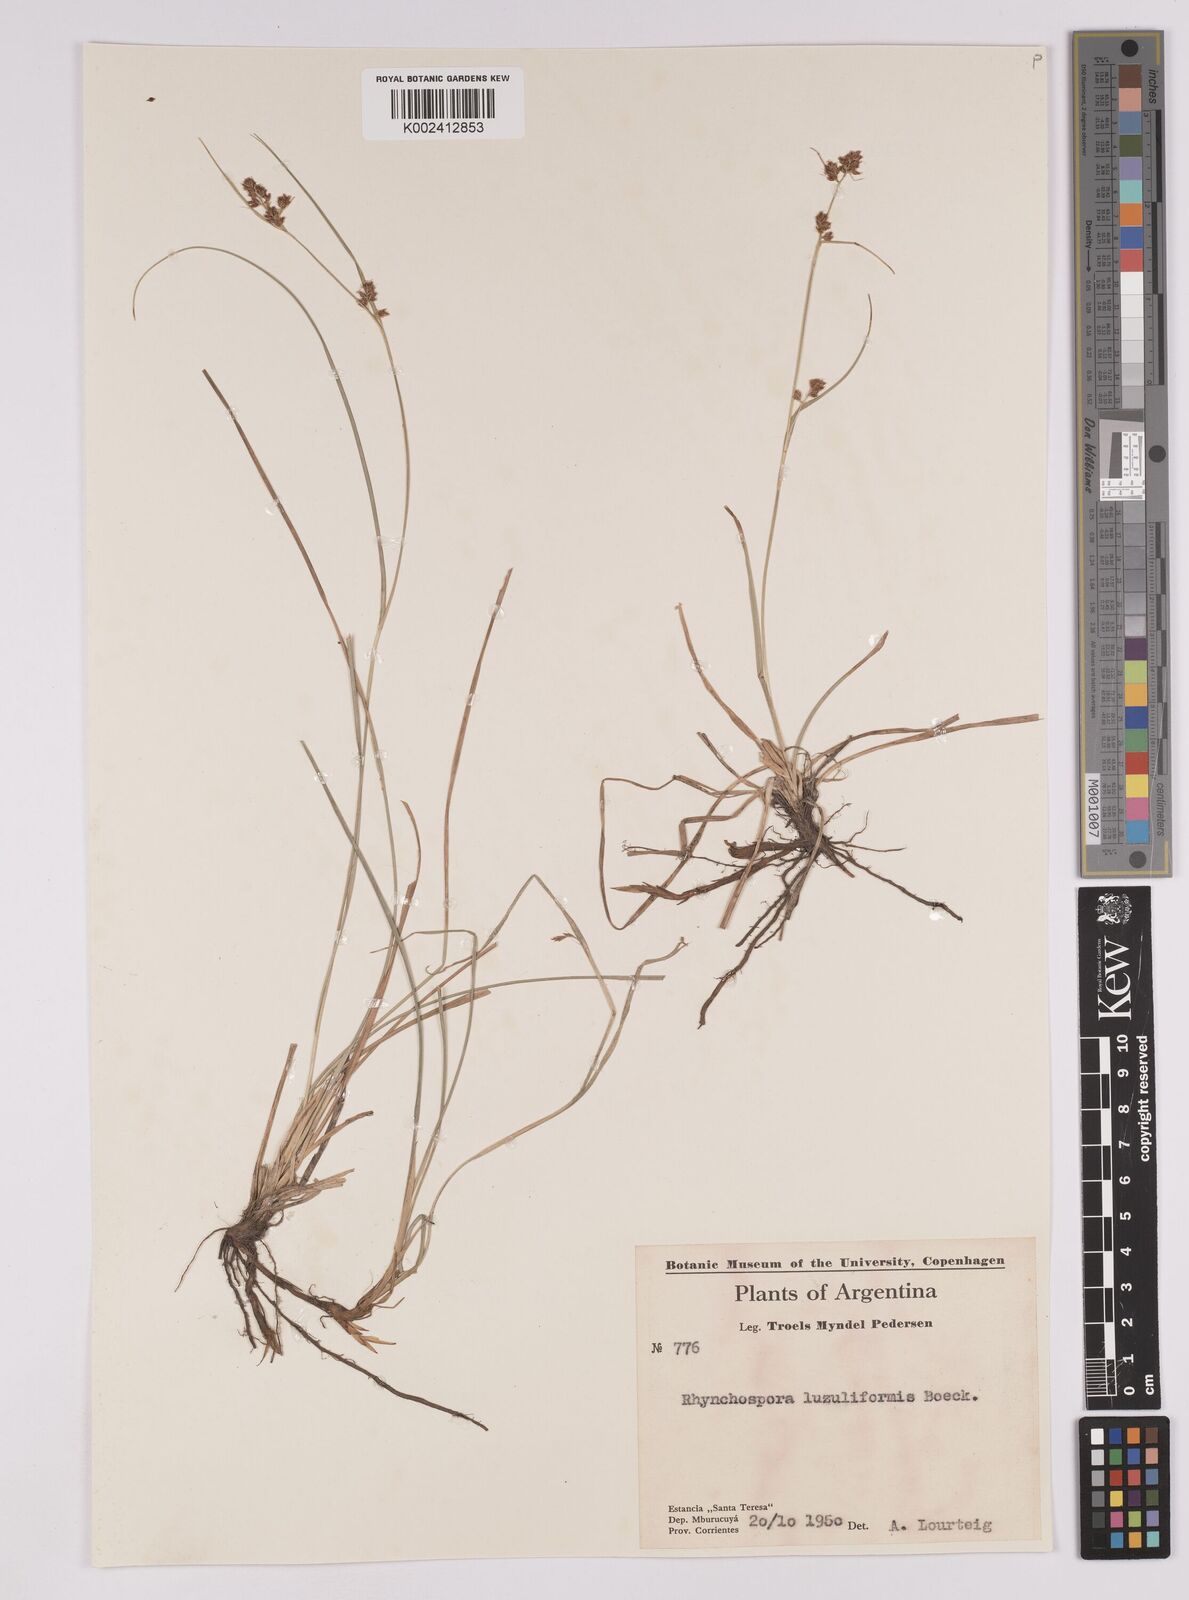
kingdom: Plantae
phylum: Tracheophyta
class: Liliopsida
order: Poales
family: Cyperaceae
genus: Rhynchospora
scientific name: Rhynchospora megapotamica
